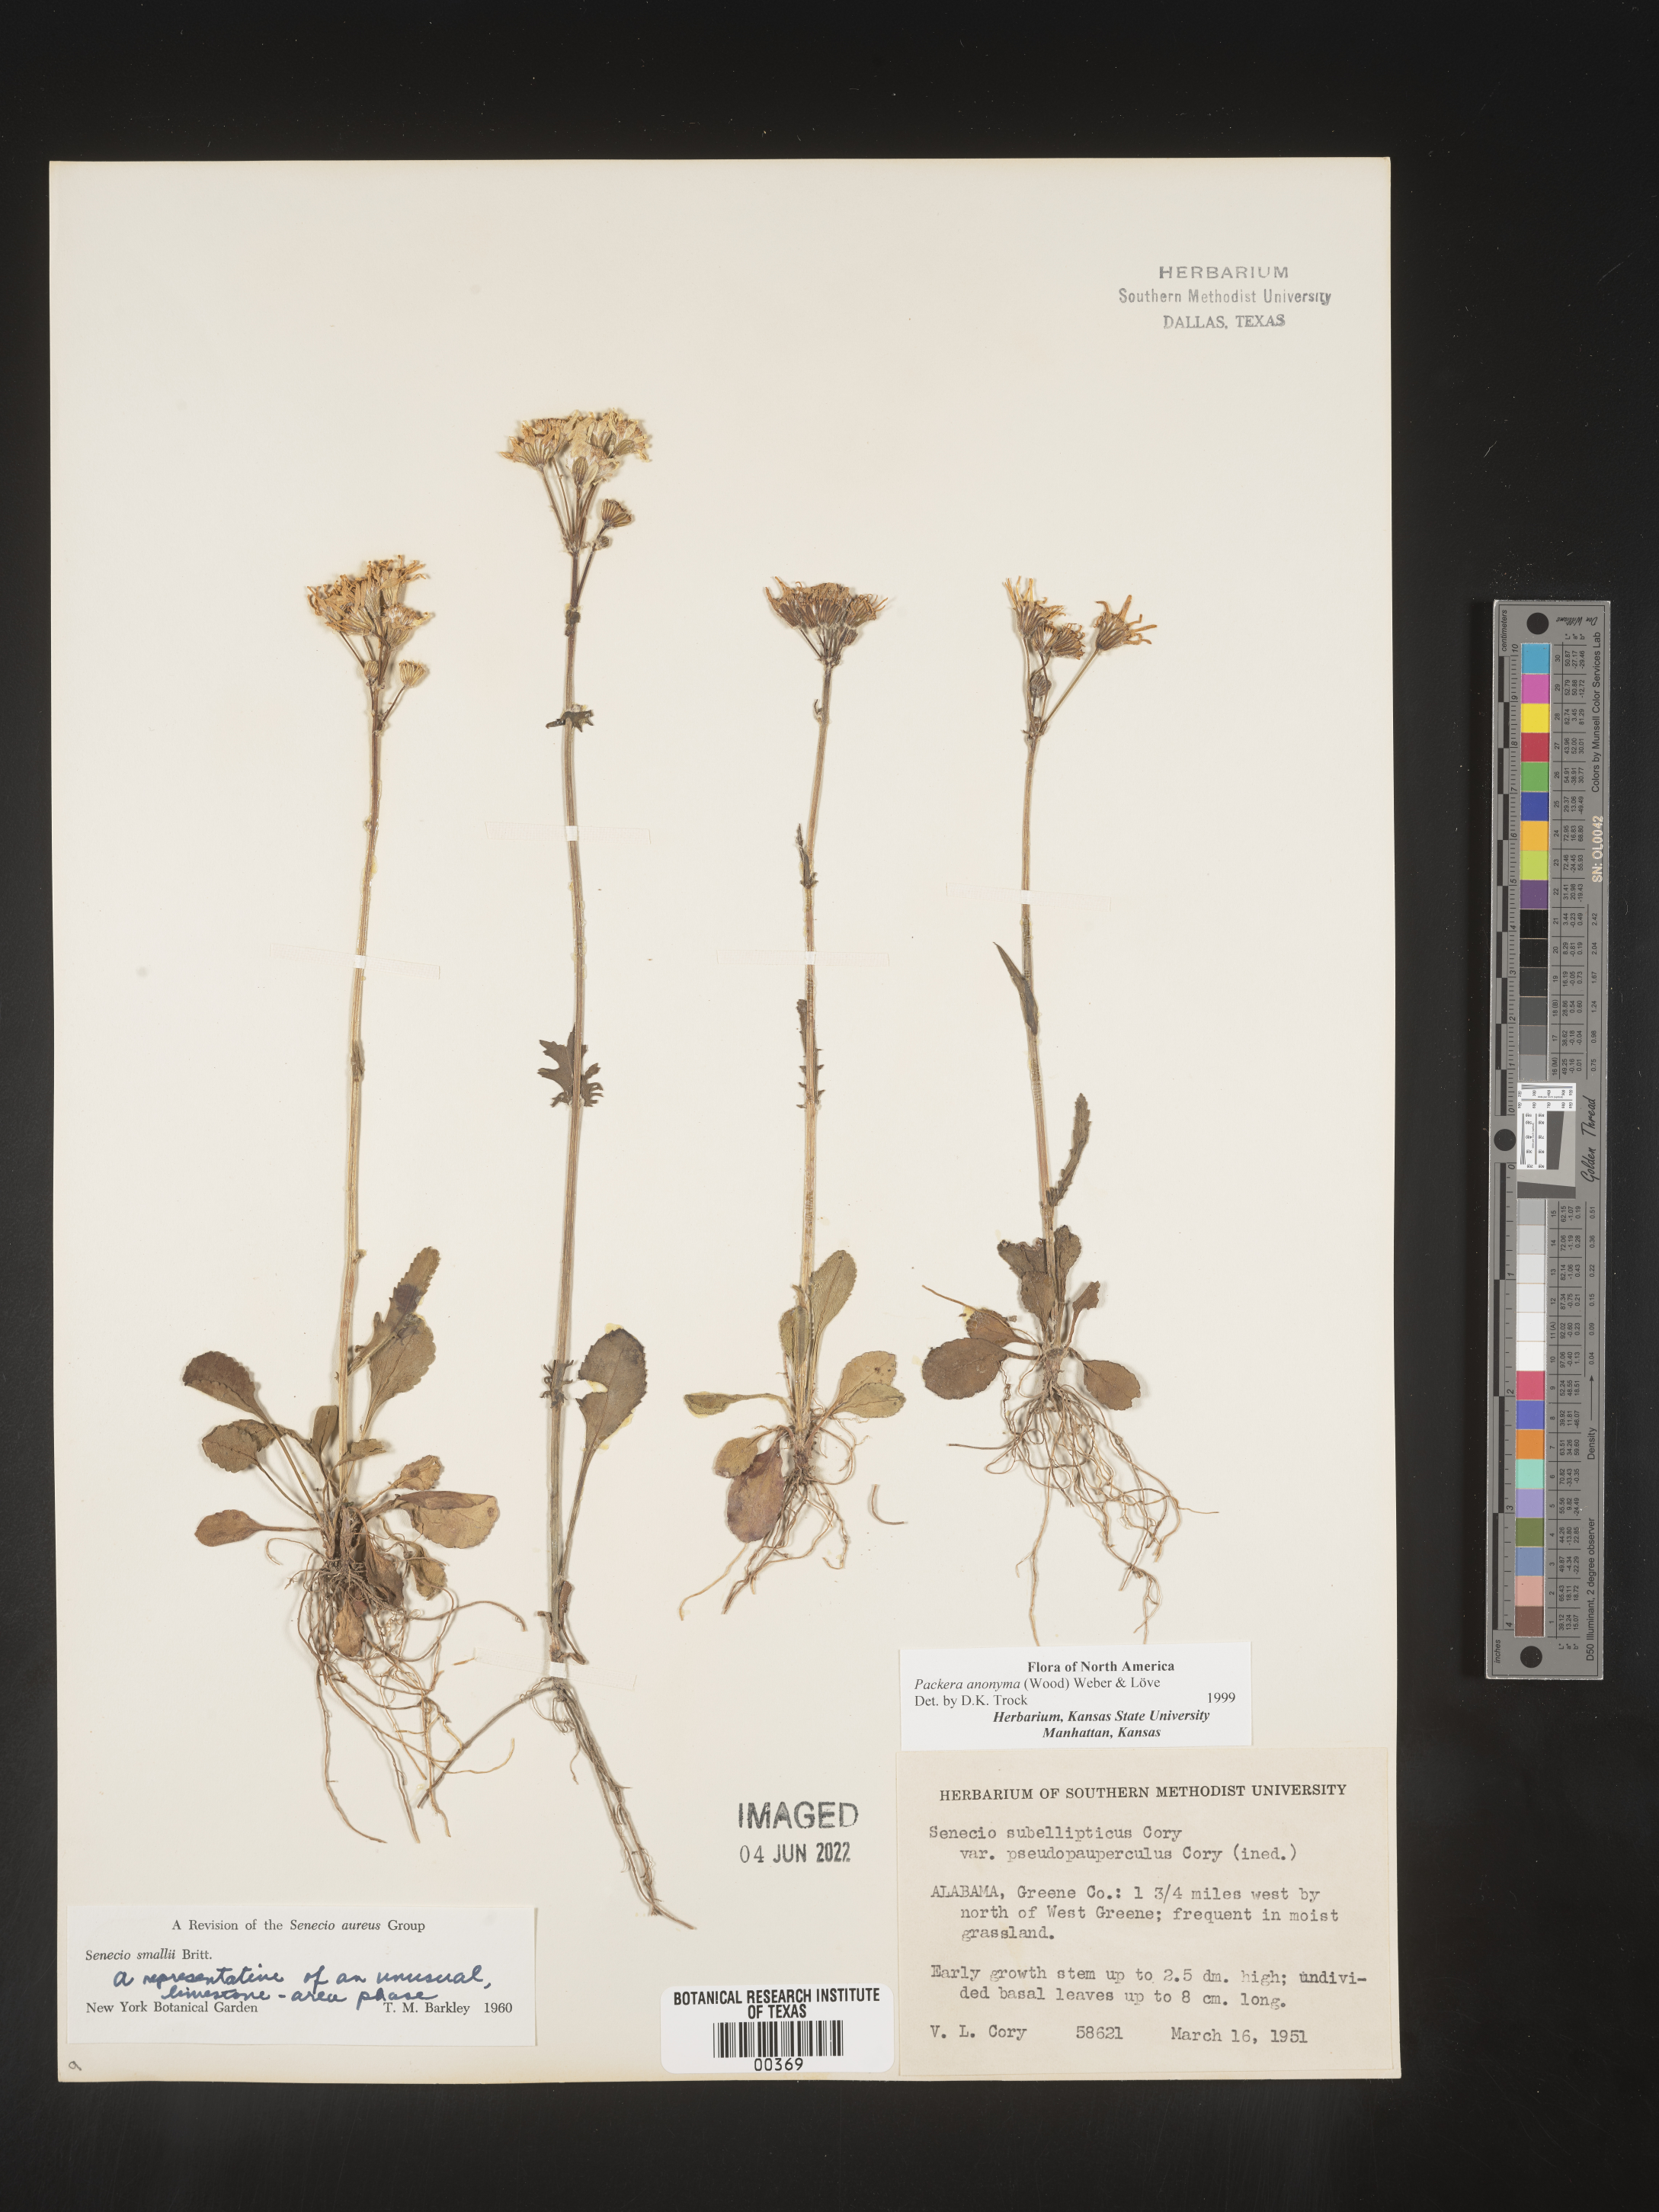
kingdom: Plantae
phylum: Tracheophyta
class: Magnoliopsida
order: Asterales
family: Asteraceae
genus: Packera
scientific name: Packera anonyma
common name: Small ragwort
